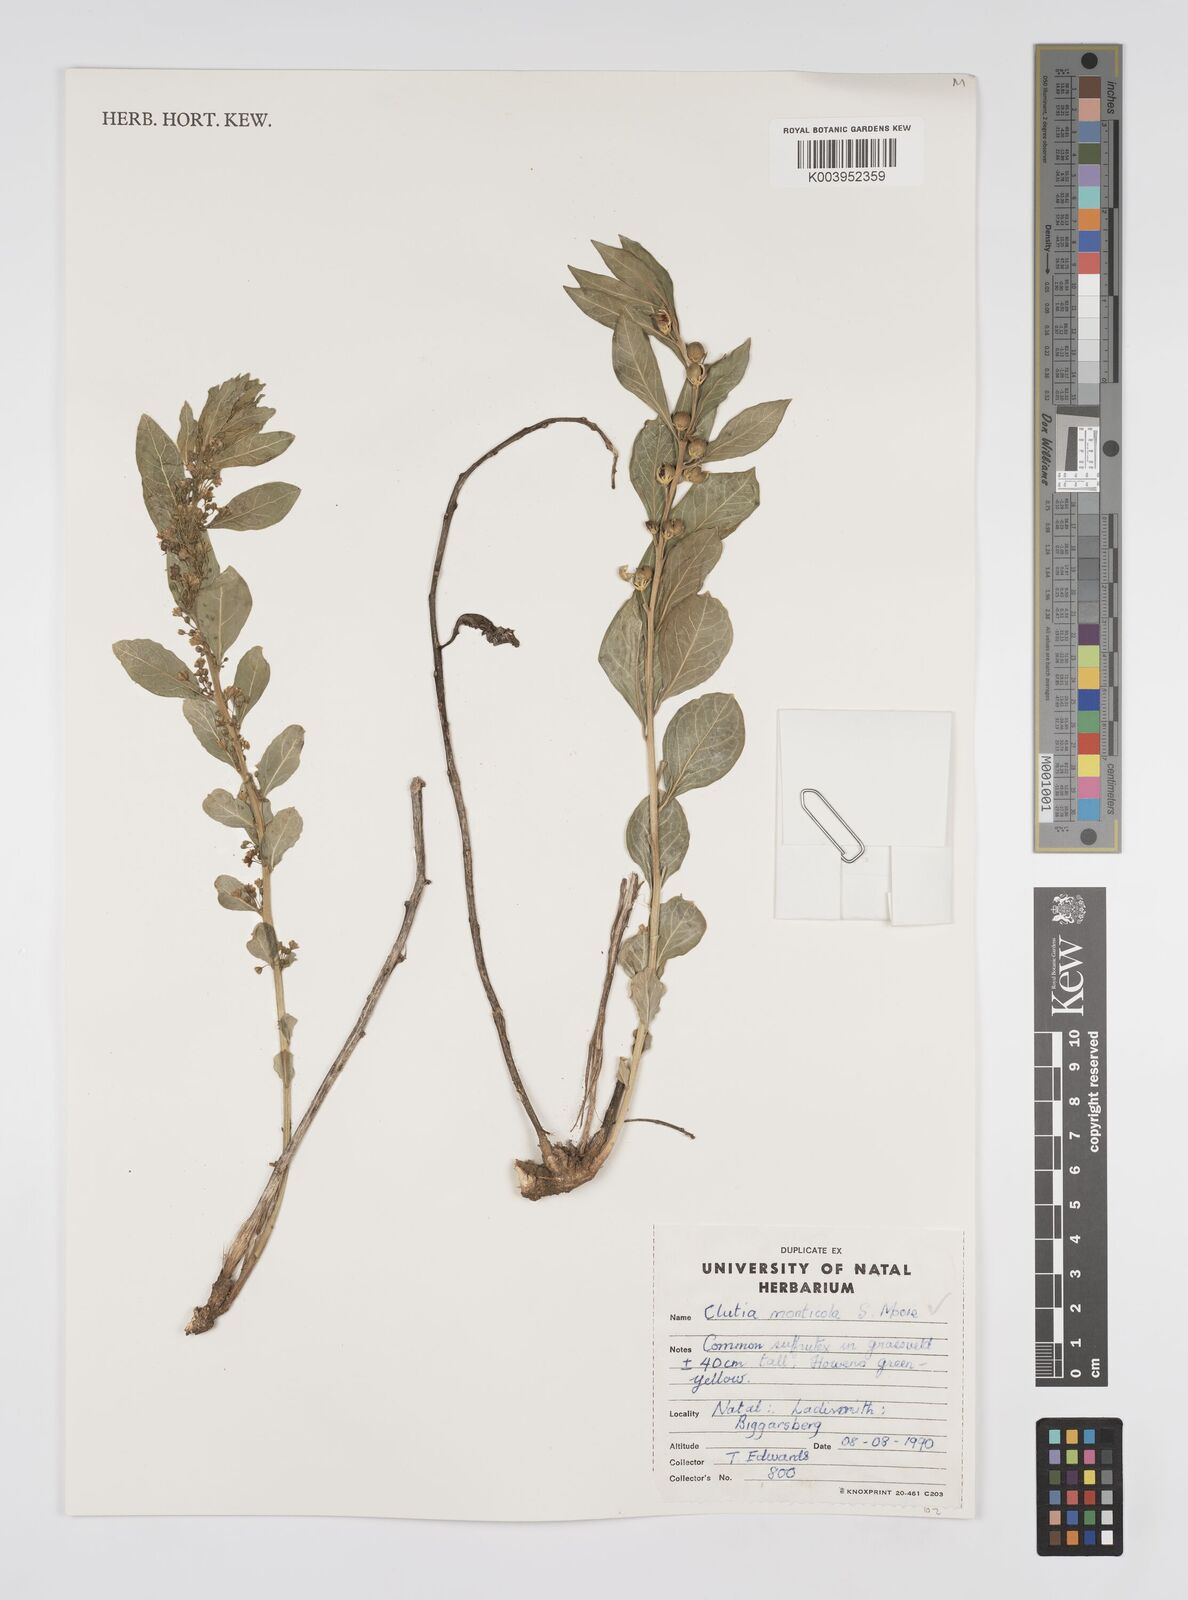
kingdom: Plantae
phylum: Tracheophyta
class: Magnoliopsida
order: Malpighiales
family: Peraceae
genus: Clutia
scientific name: Clutia monticola
